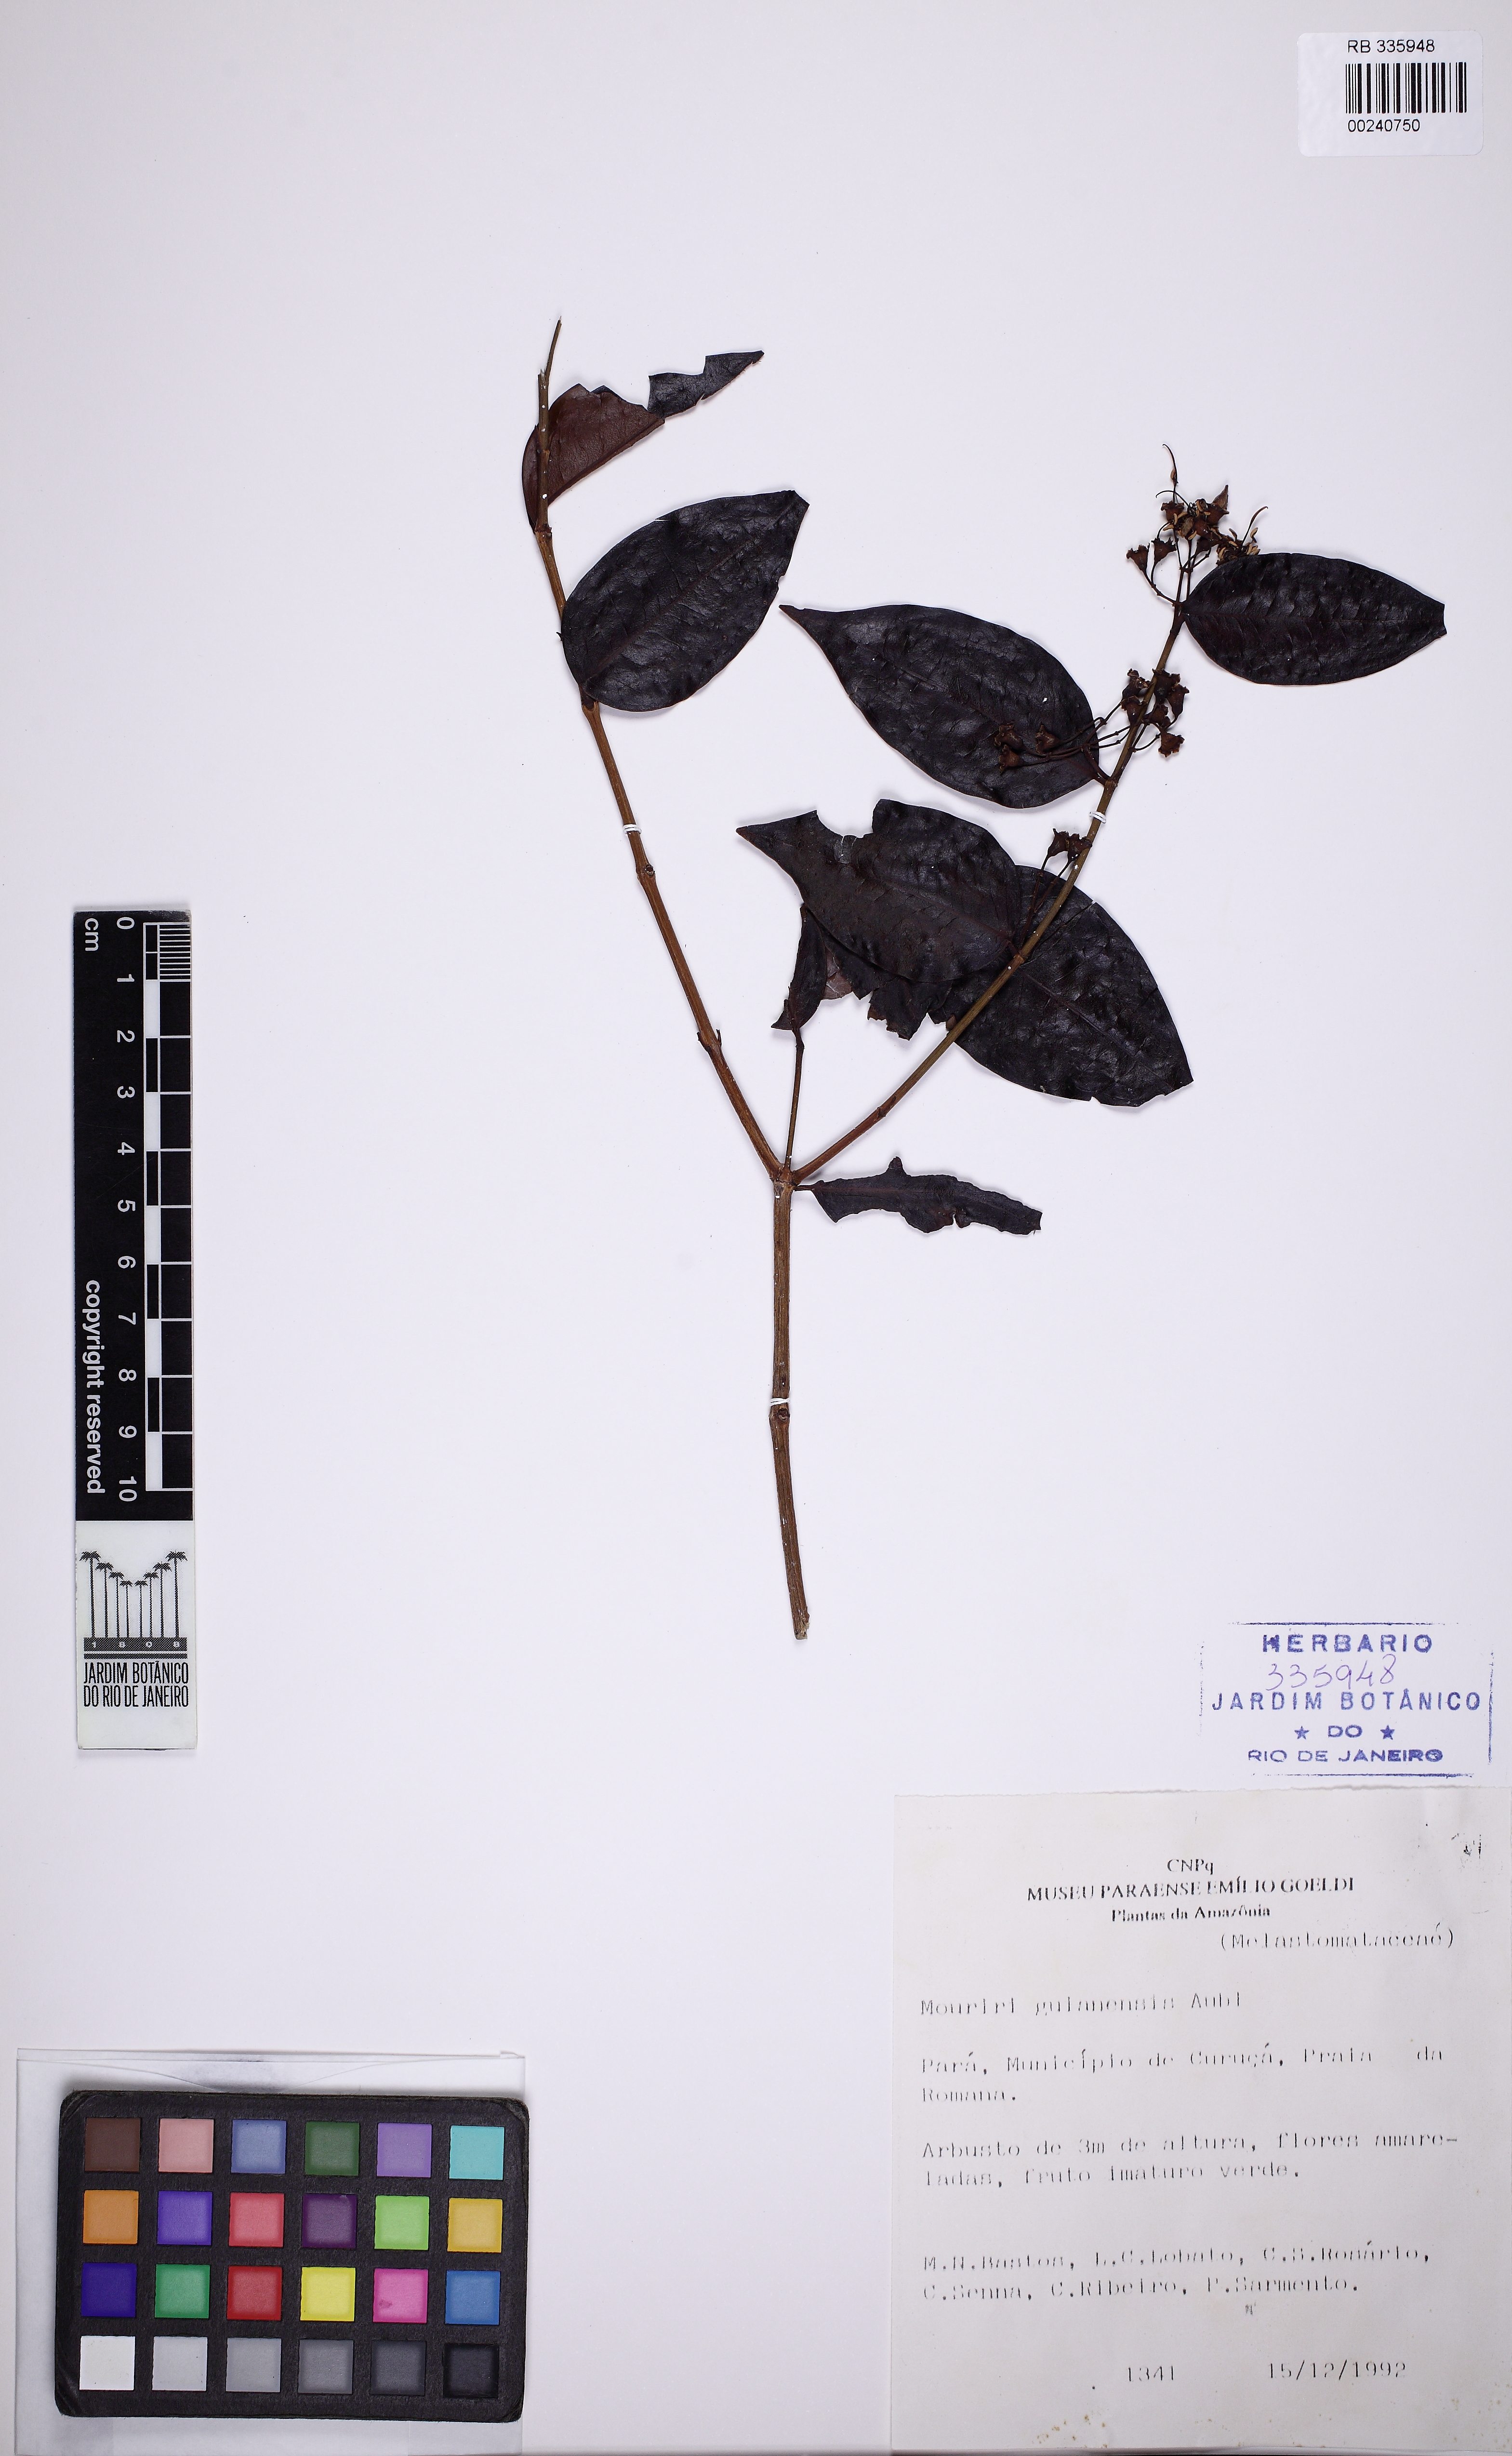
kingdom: Plantae
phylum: Tracheophyta
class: Magnoliopsida
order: Myrtales
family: Melastomataceae
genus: Mouriri
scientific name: Mouriri guianensis
